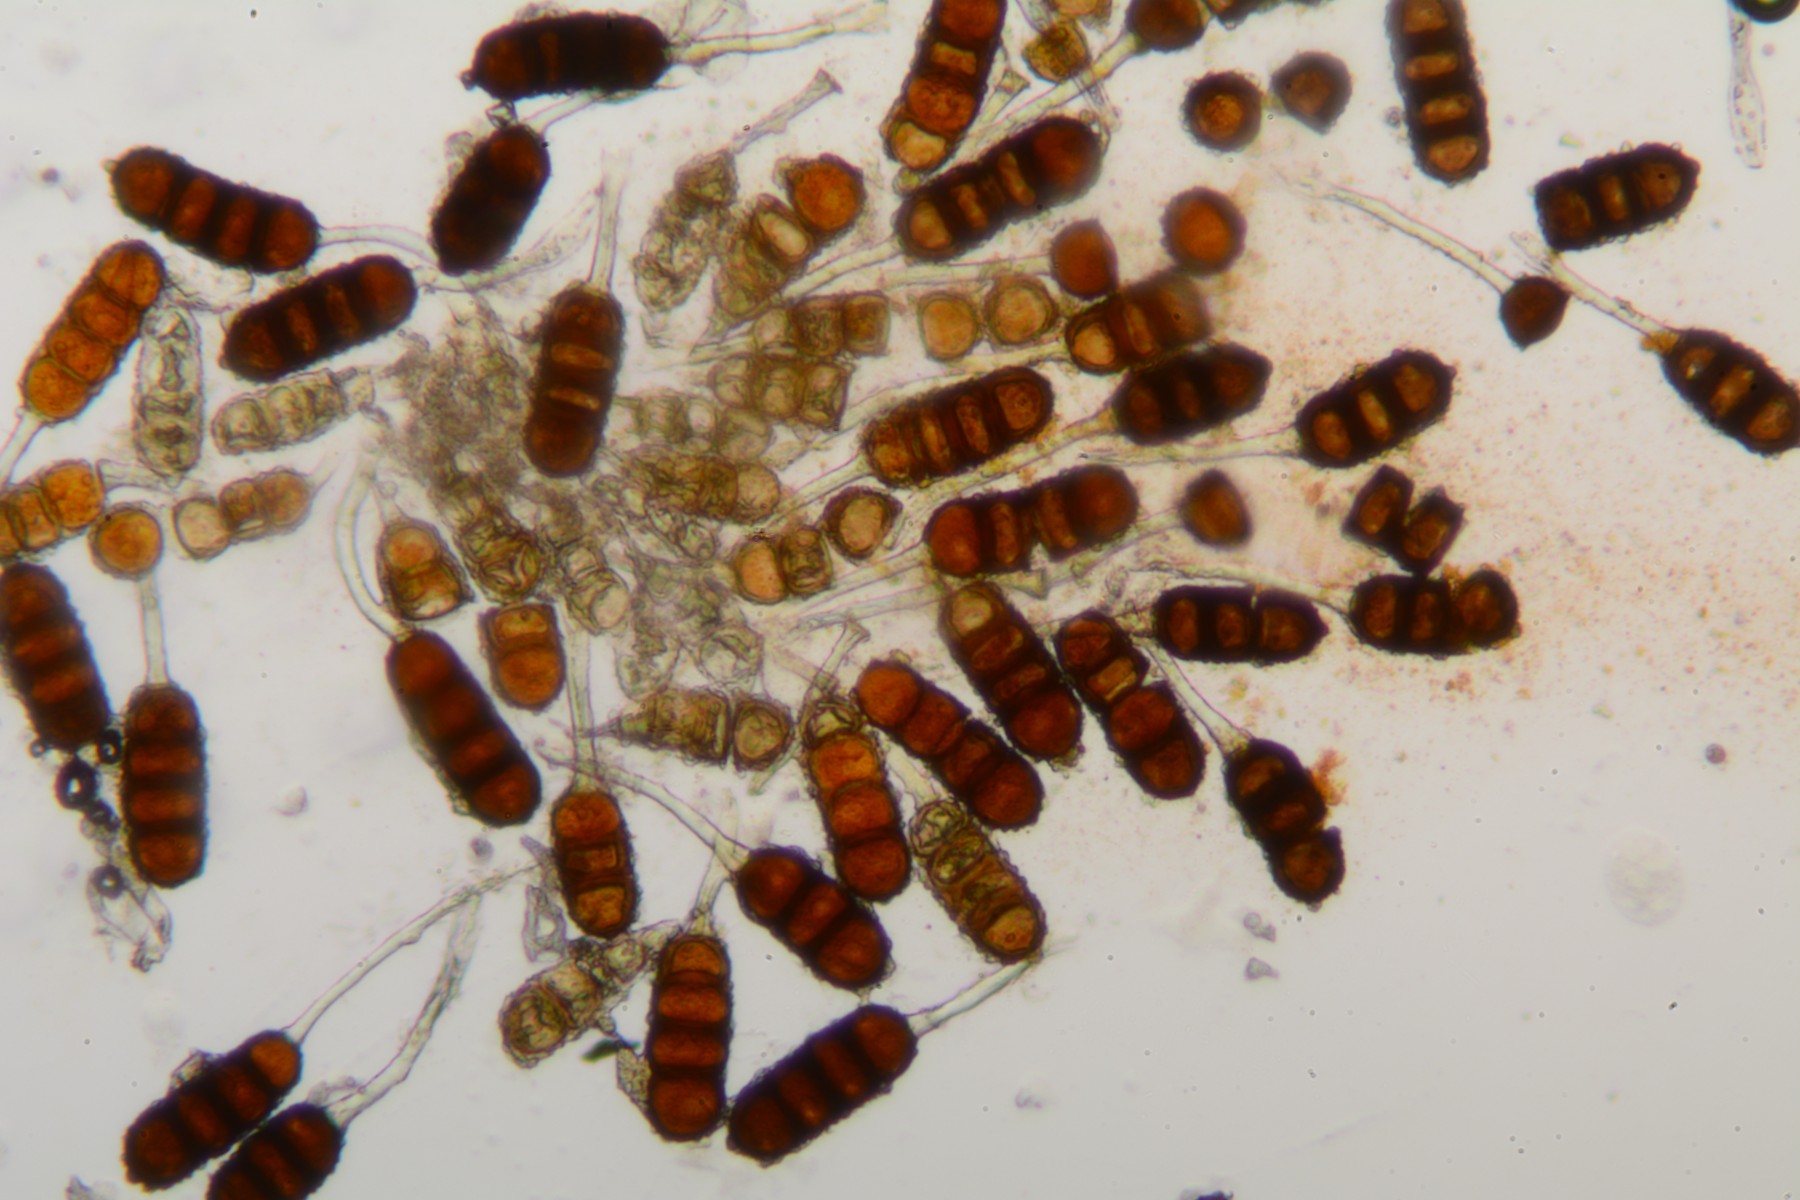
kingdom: Fungi
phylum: Basidiomycota
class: Pucciniomycetes
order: Pucciniales
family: Phragmidiaceae
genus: Phragmidium
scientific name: Phragmidium violaceum
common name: violet flercellerust
